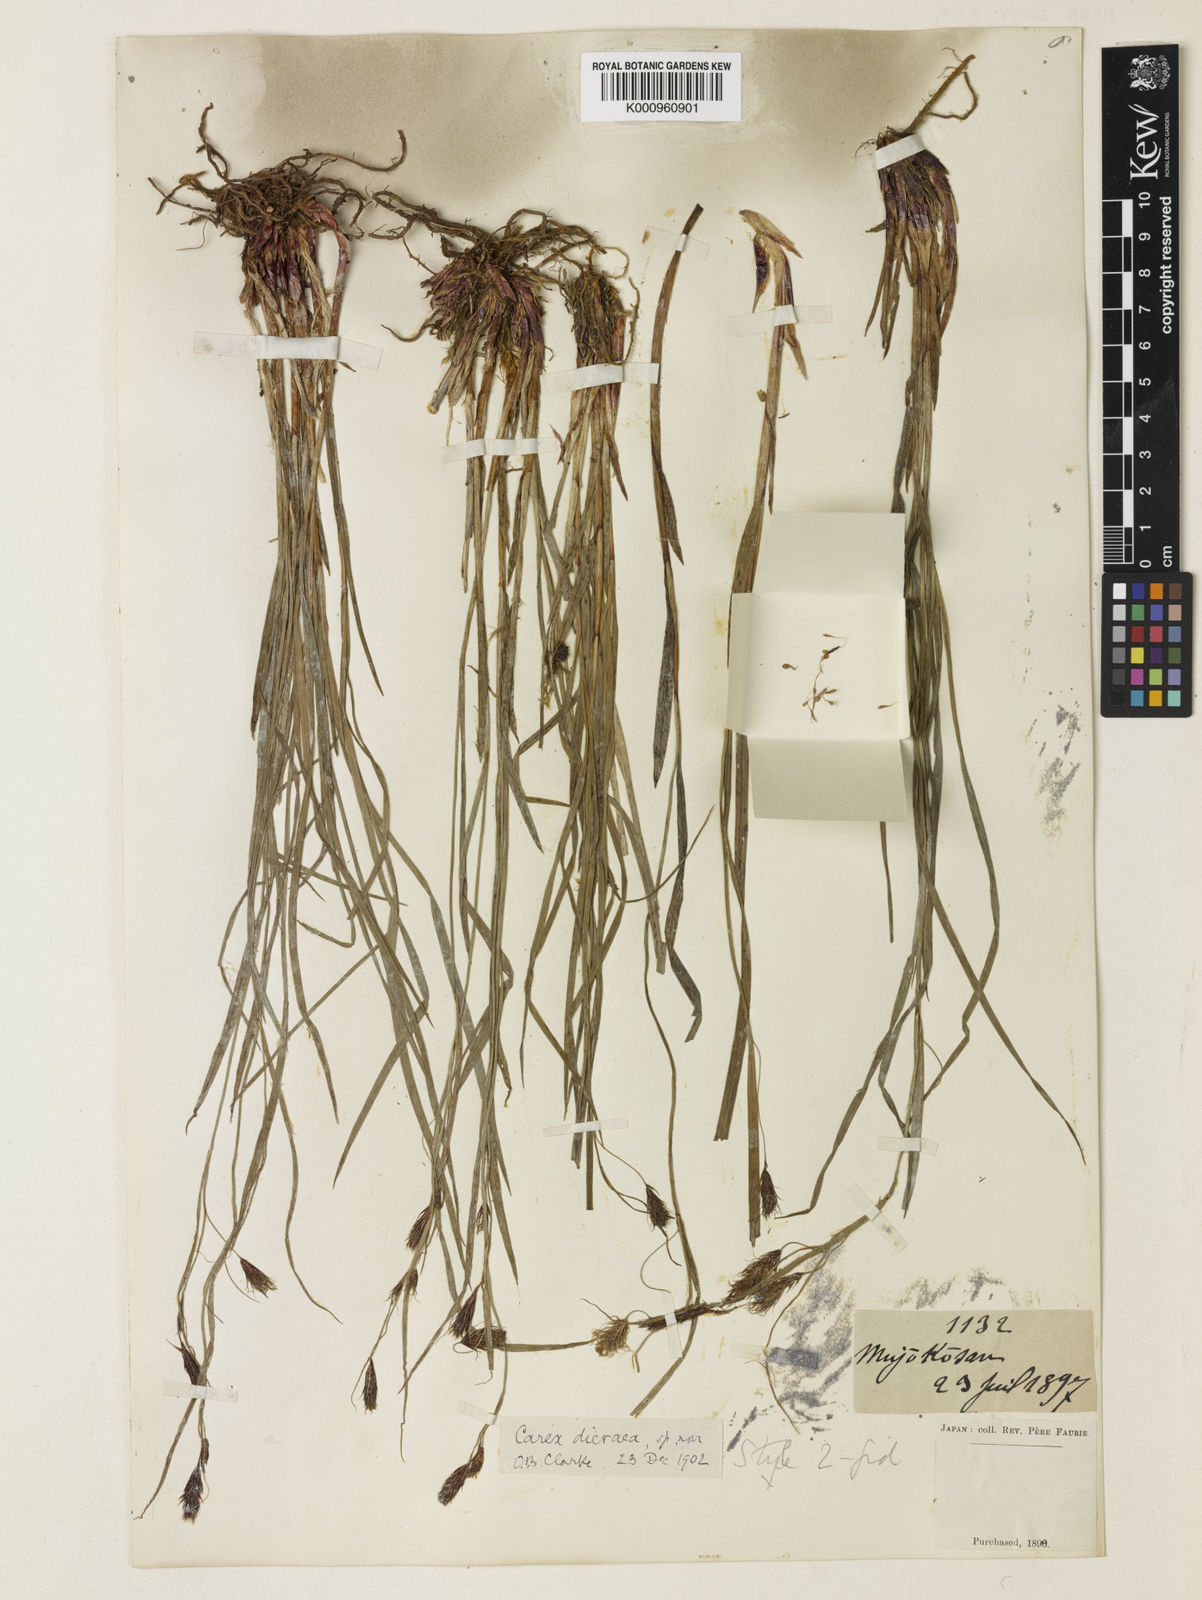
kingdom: Plantae
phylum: Tracheophyta
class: Liliopsida
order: Poales
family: Cyperaceae
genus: Carex
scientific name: Carex doenitzii
